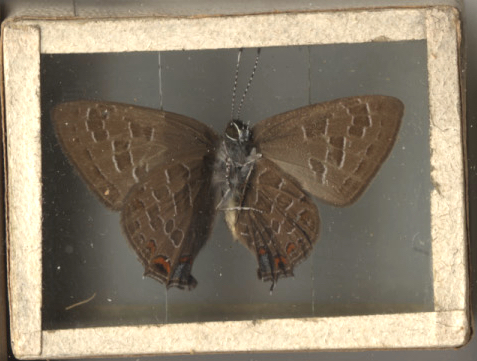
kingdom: Animalia
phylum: Arthropoda
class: Insecta
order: Lepidoptera
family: Lycaenidae
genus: Satyrium
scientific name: Satyrium liparops
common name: Striped Hairstreak
